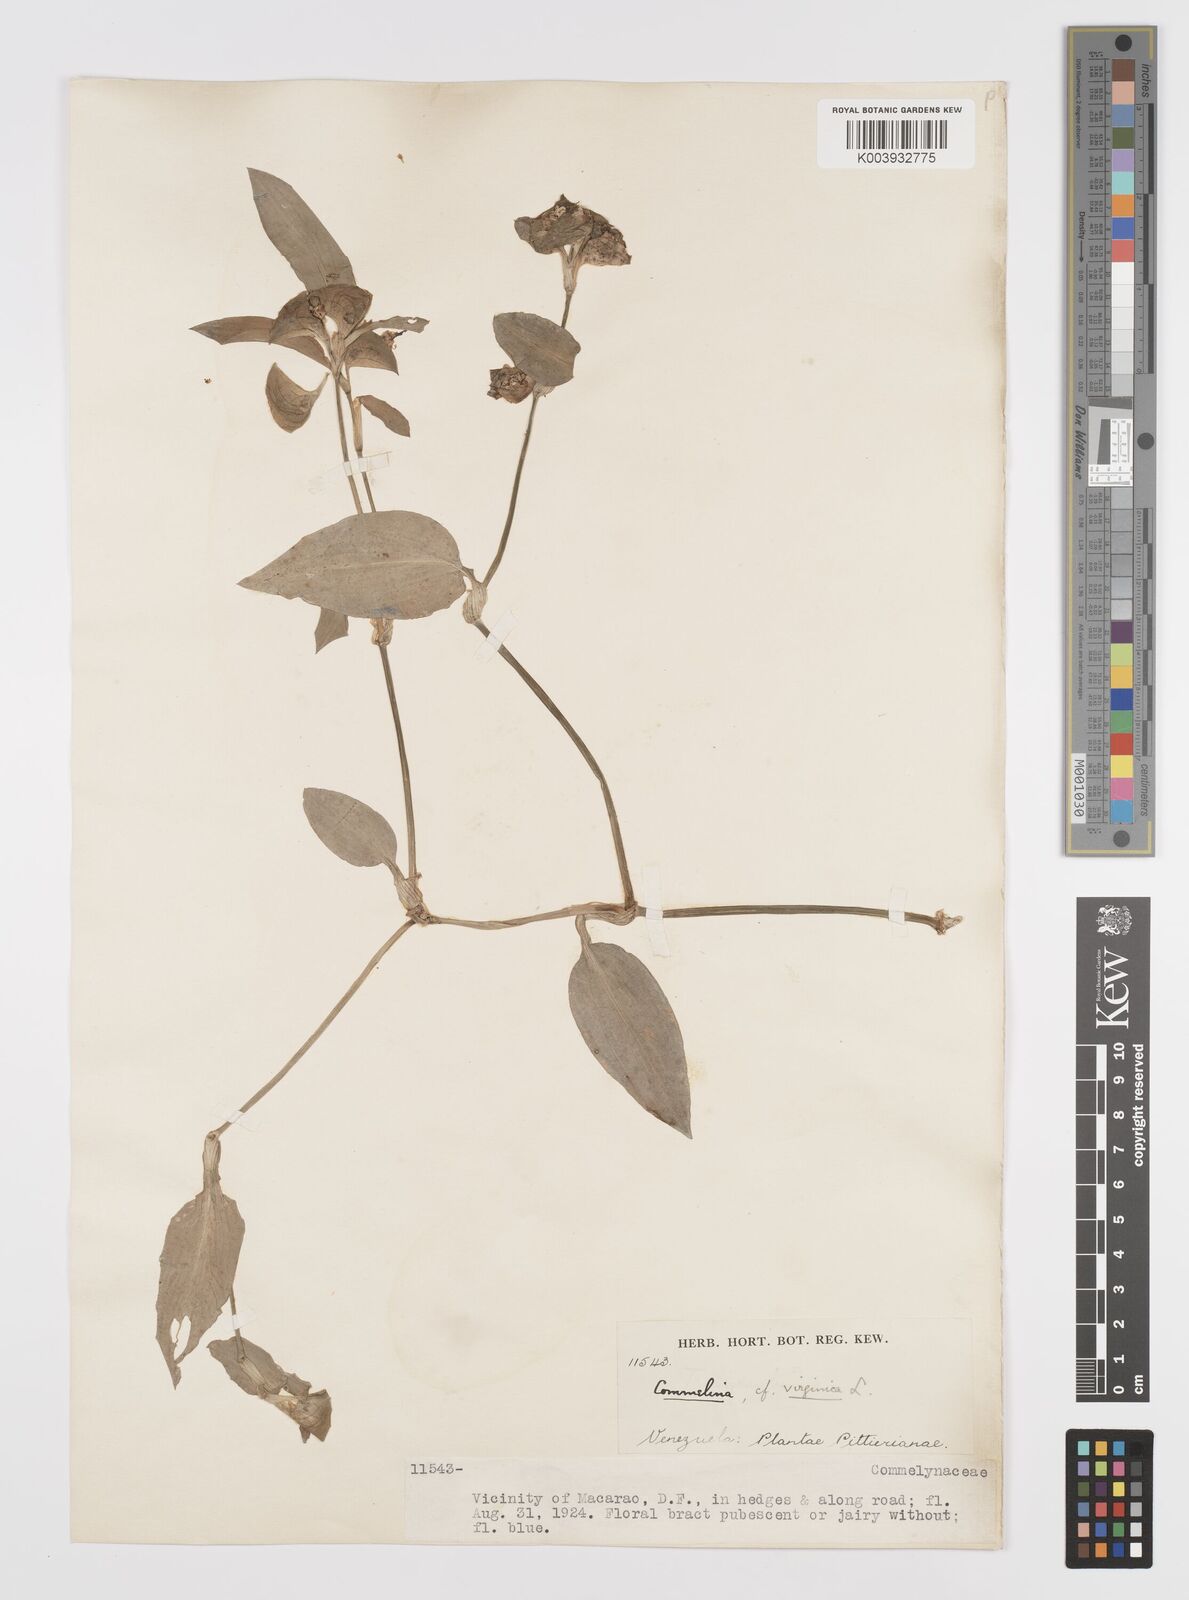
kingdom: Plantae
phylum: Tracheophyta
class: Liliopsida
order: Commelinales
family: Commelinaceae
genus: Commelina
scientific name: Commelina virginica
